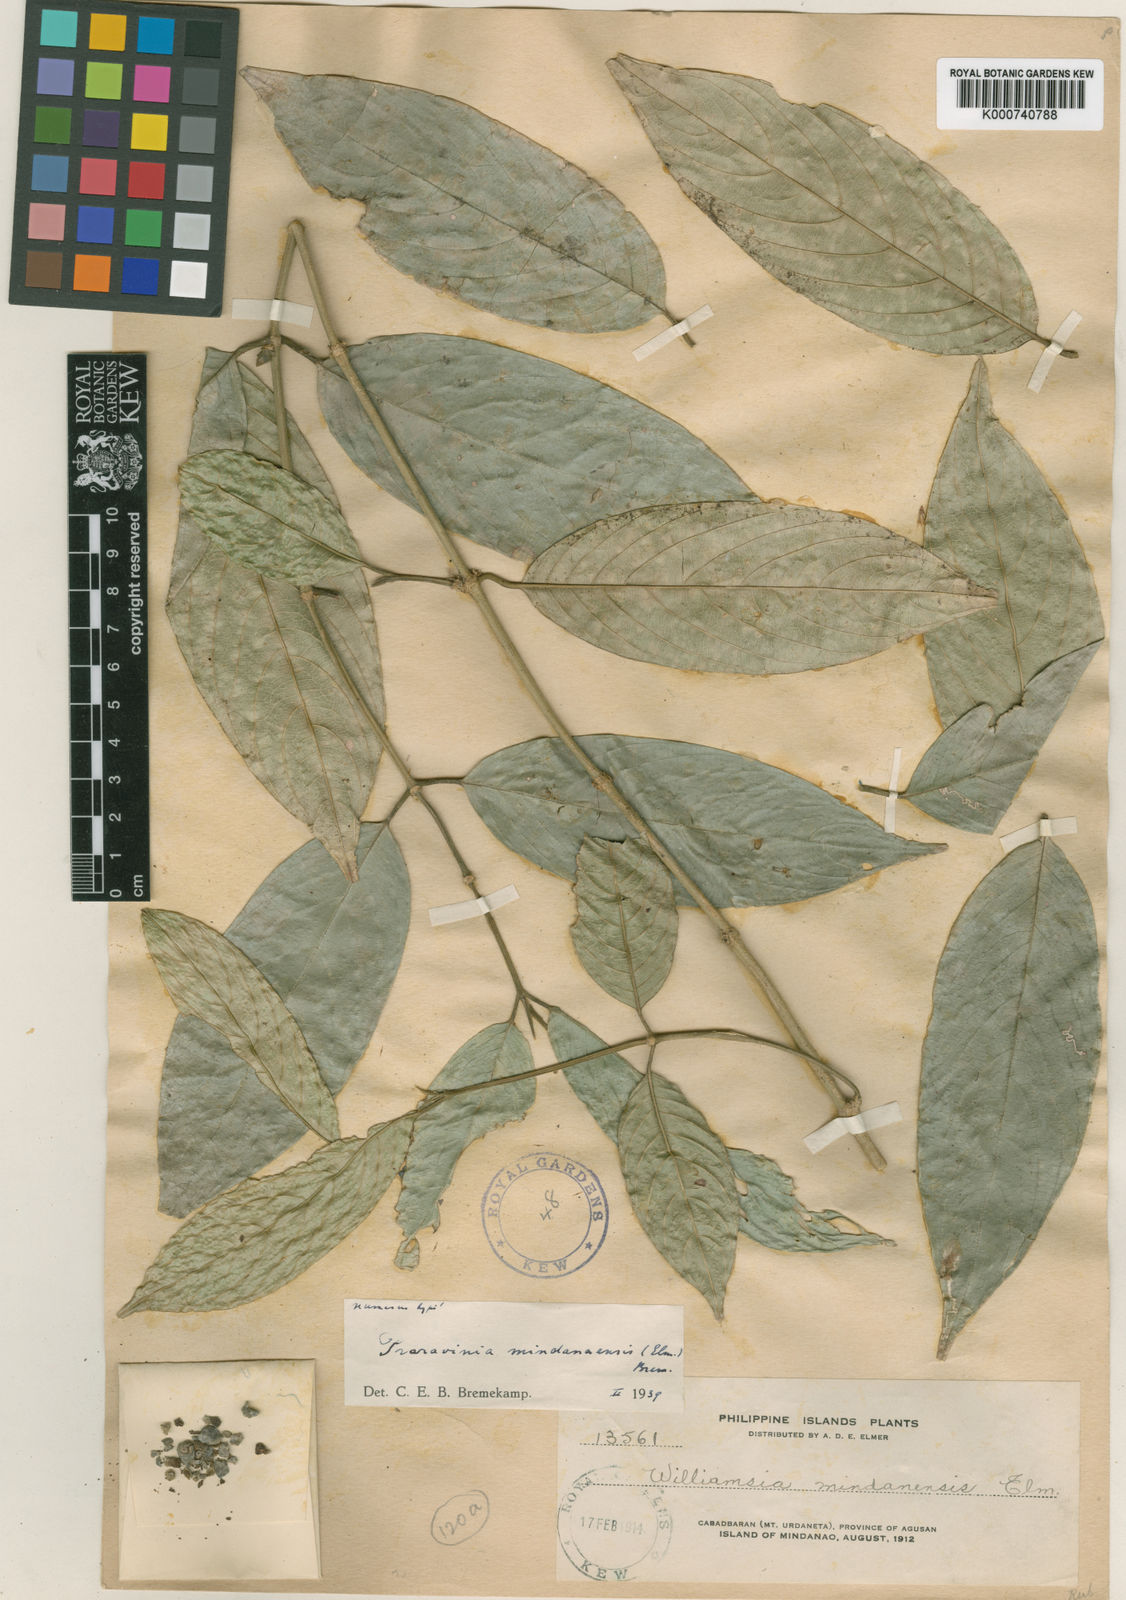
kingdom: Plantae
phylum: Tracheophyta
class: Magnoliopsida
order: Gentianales
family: Rubiaceae
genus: Praravinia
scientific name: Praravinia mindanaensis
